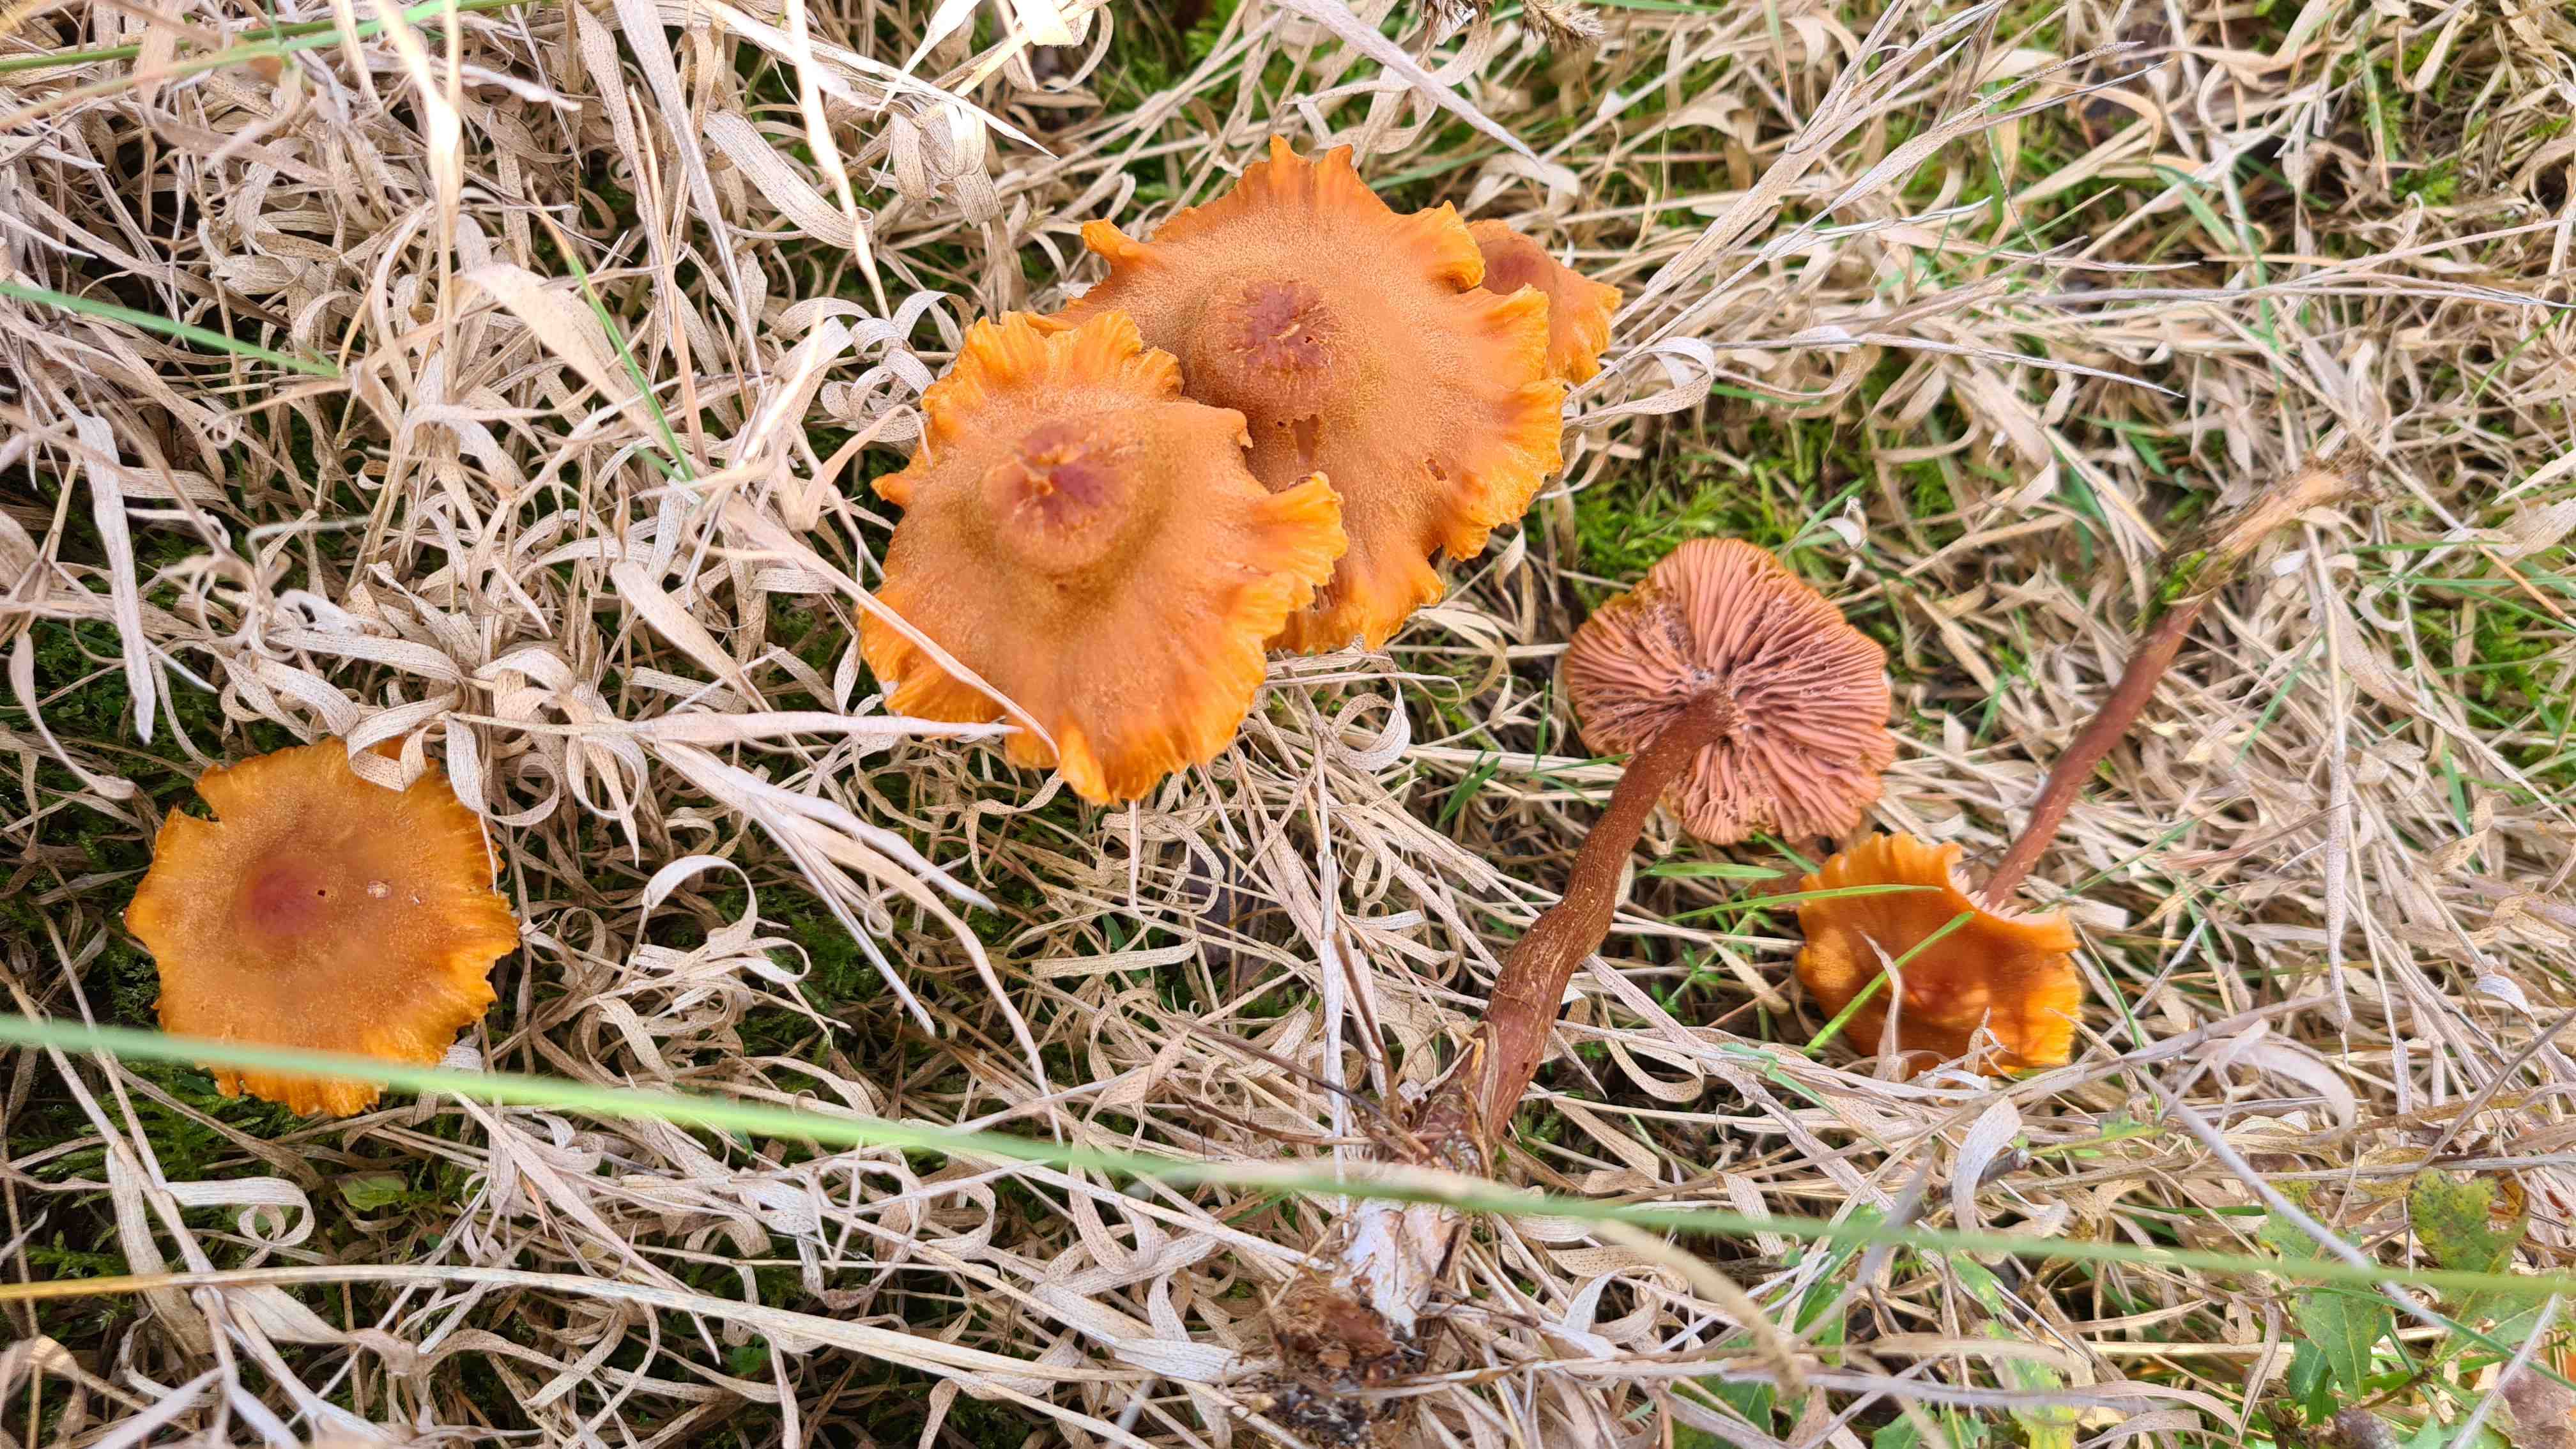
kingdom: Fungi
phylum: Basidiomycota
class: Agaricomycetes
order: Agaricales
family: Hydnangiaceae
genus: Laccaria
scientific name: Laccaria proxima
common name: stor ametysthat
